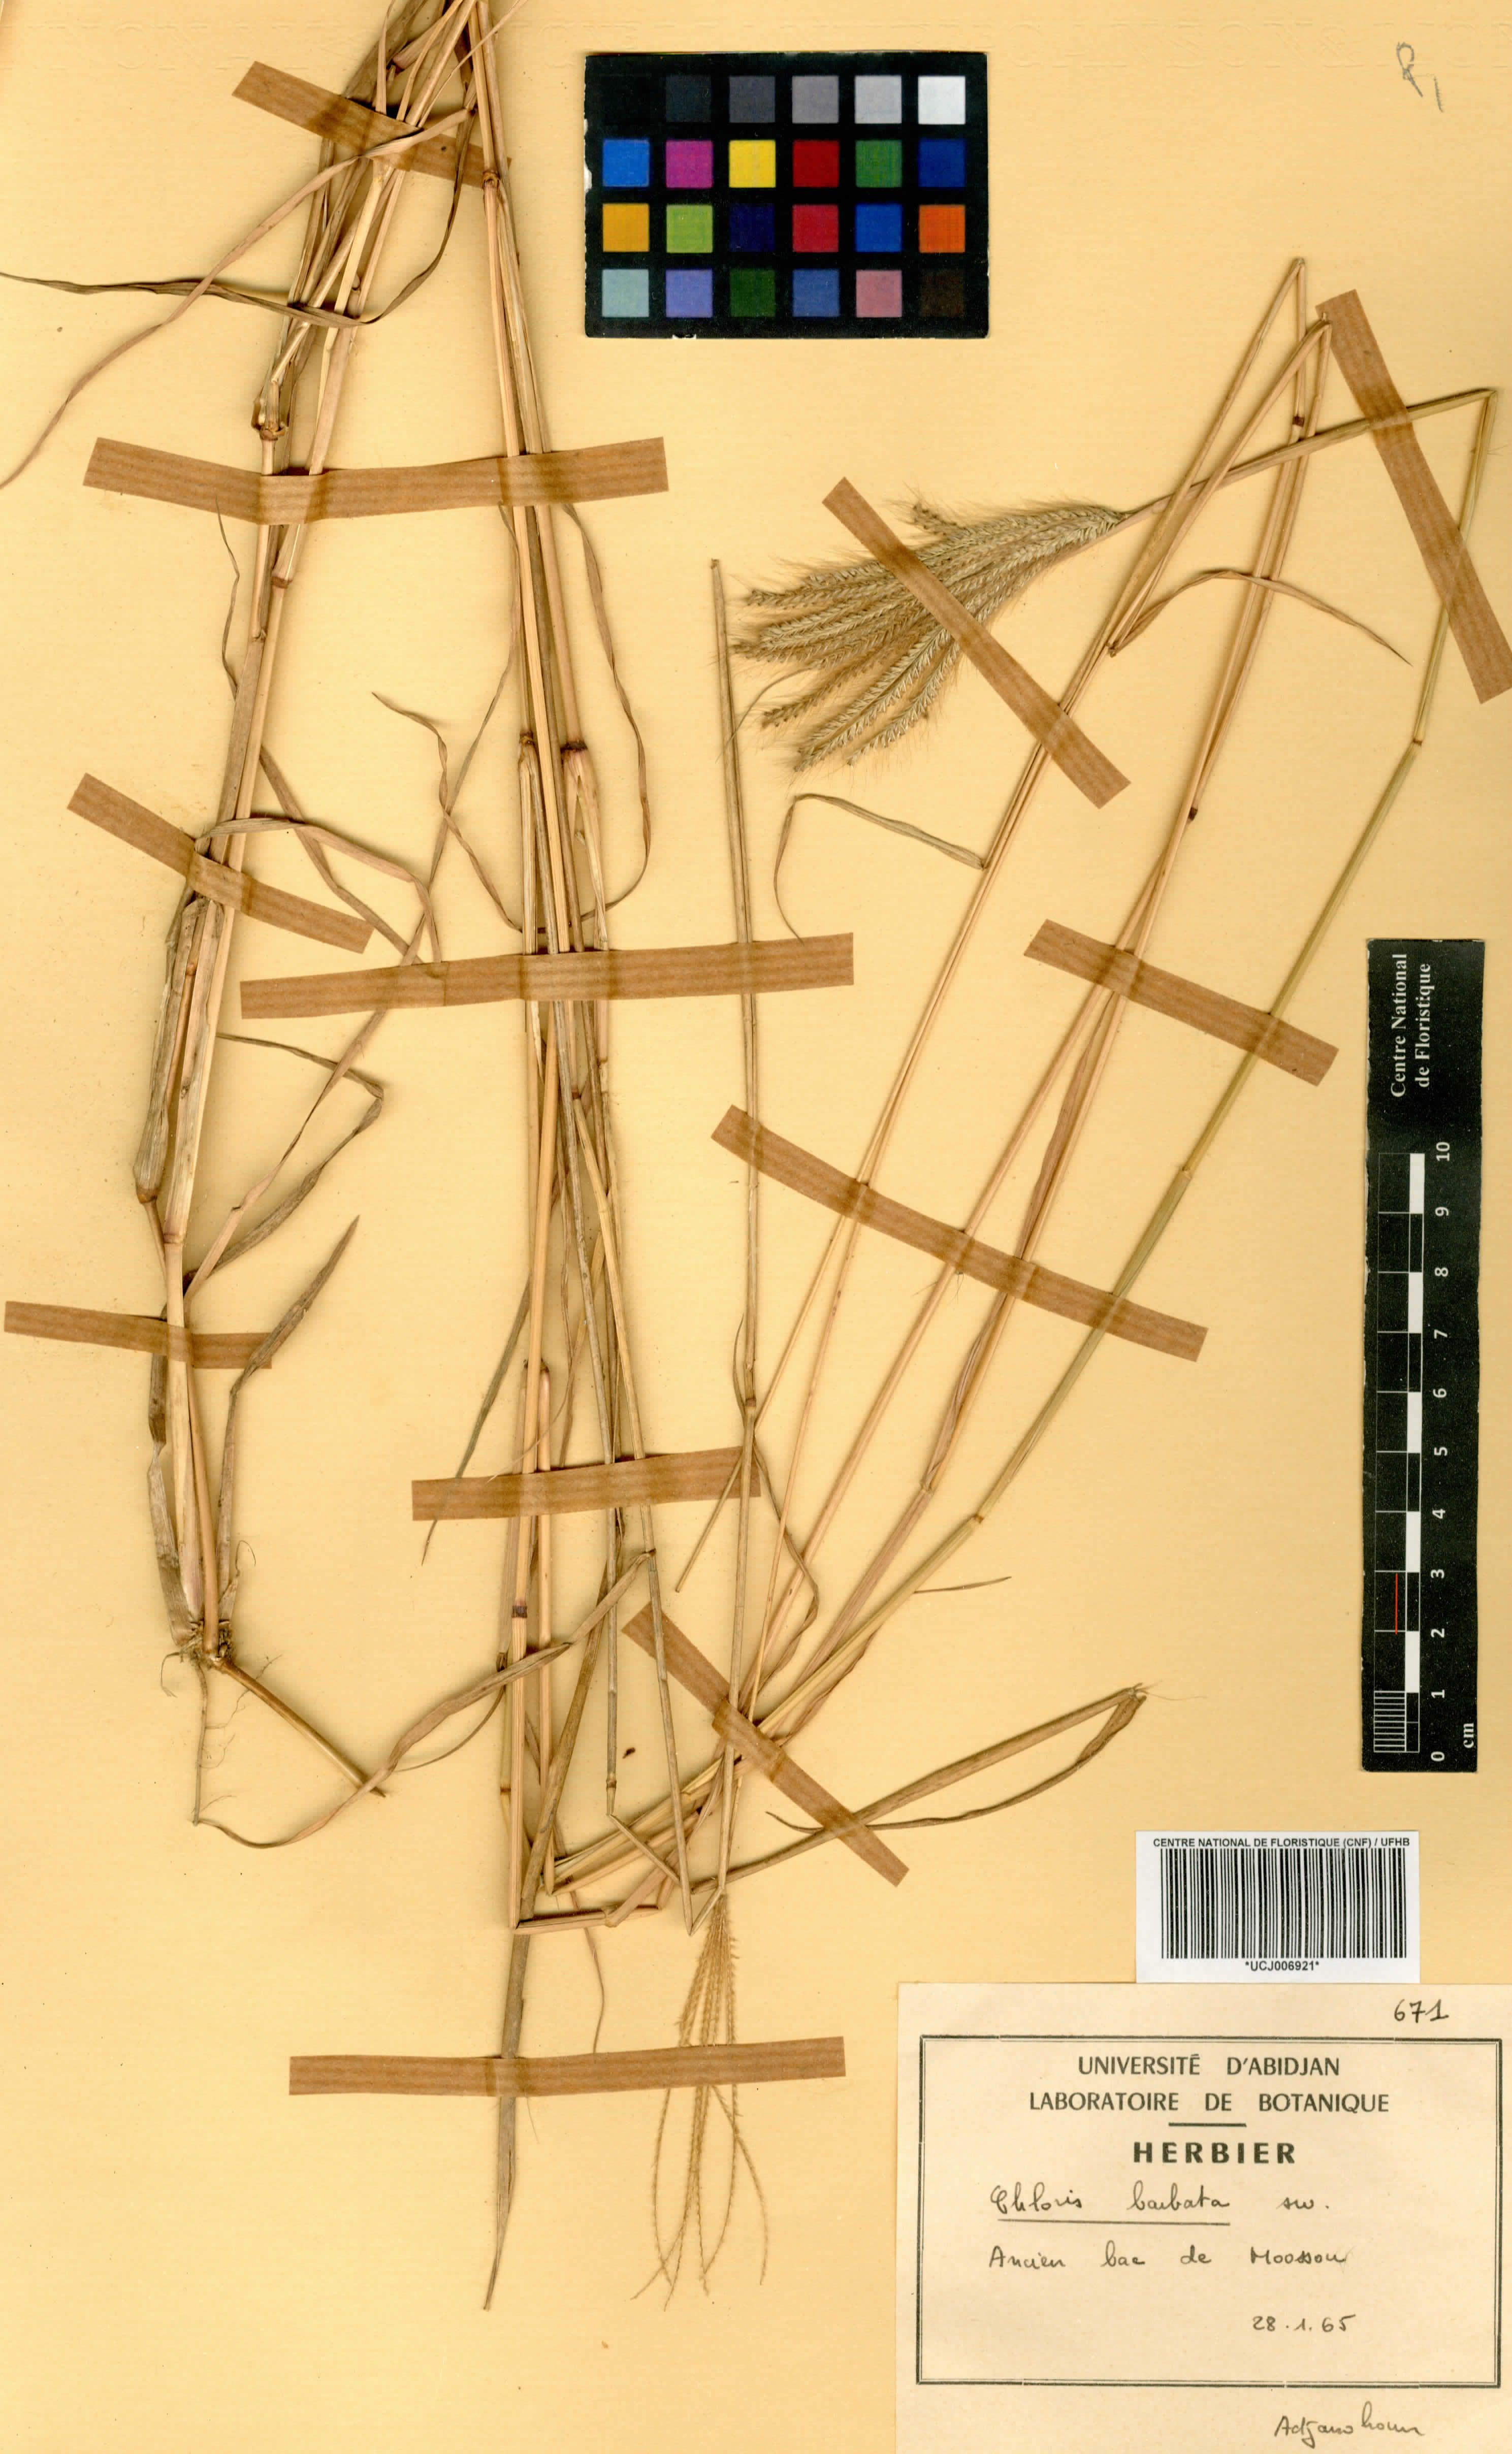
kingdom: Plantae
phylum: Tracheophyta
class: Liliopsida
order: Poales
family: Poaceae
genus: Chloris
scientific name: Chloris barbata
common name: Swollen fingergrass
